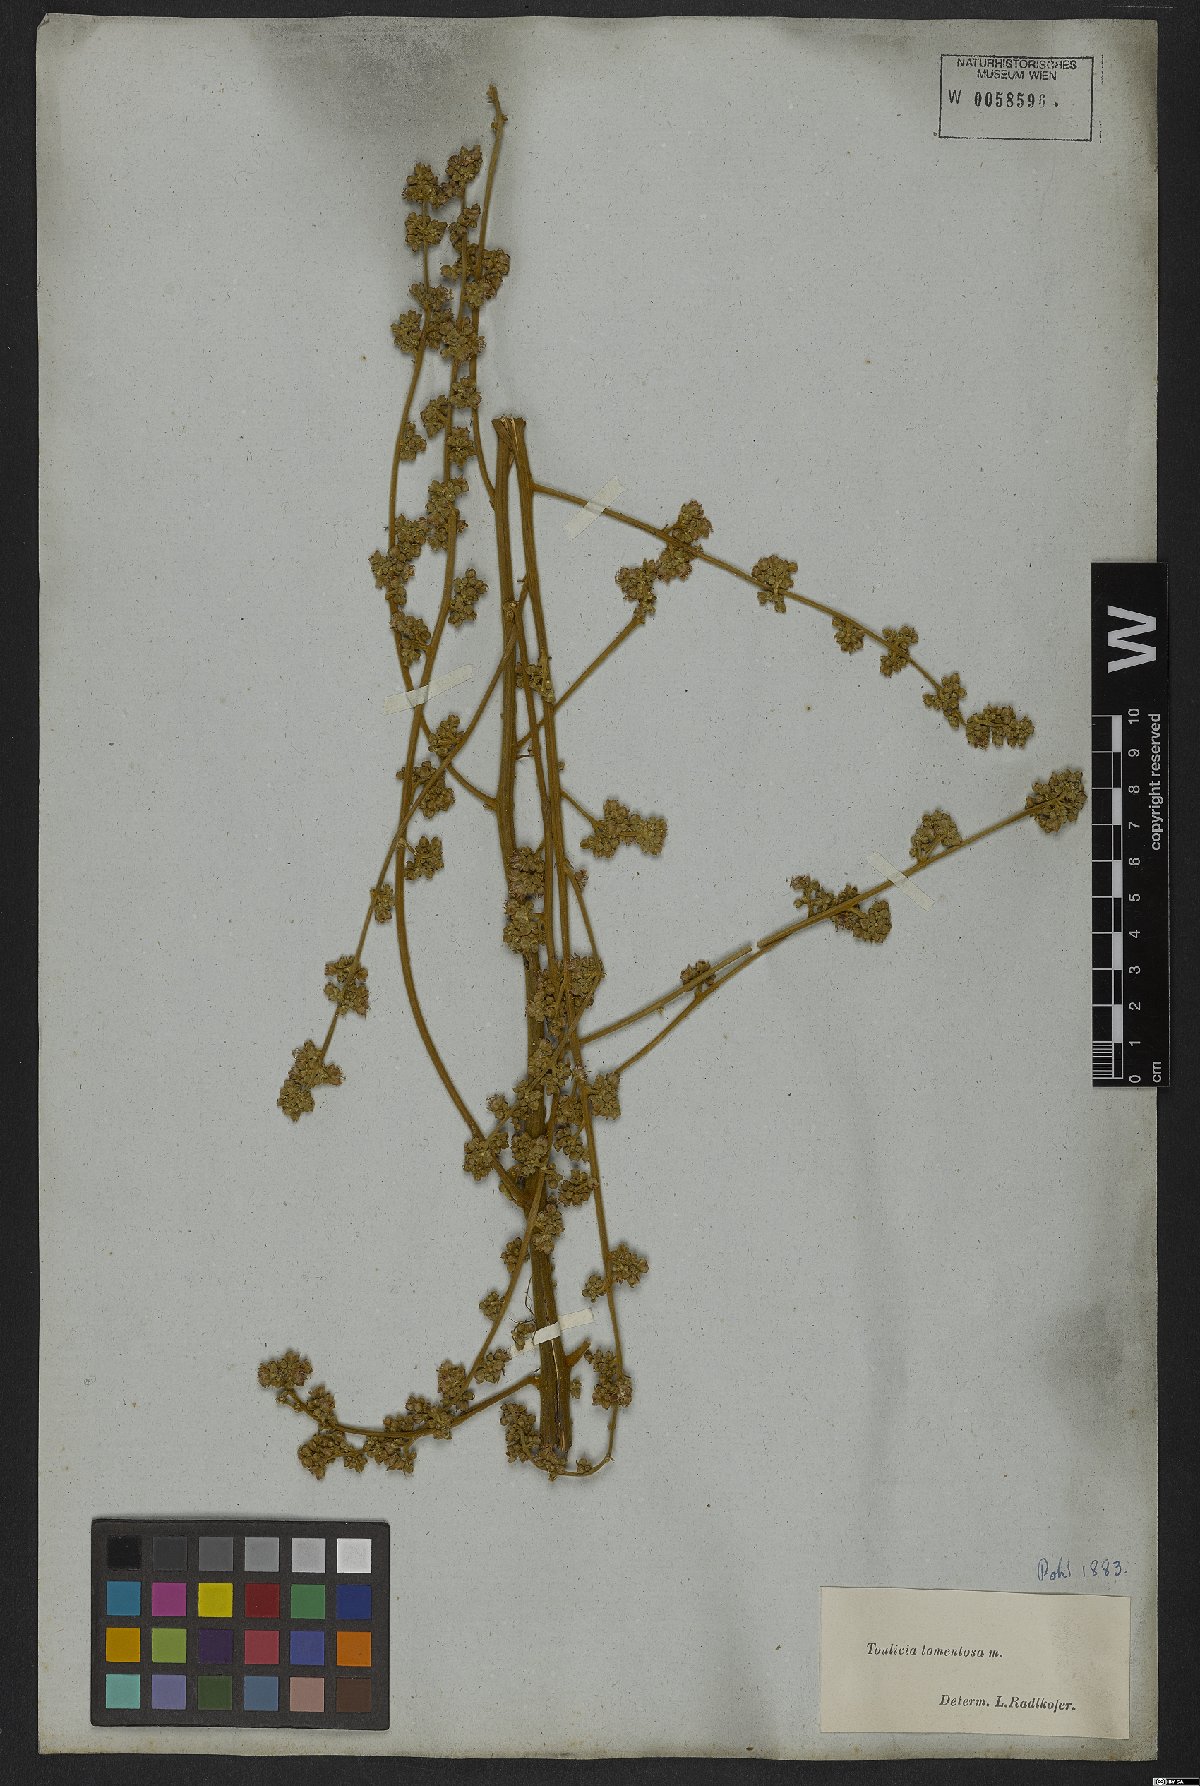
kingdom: Plantae
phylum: Tracheophyta
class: Magnoliopsida
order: Sapindales
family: Sapindaceae
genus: Toulicia
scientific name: Toulicia tomentosa
